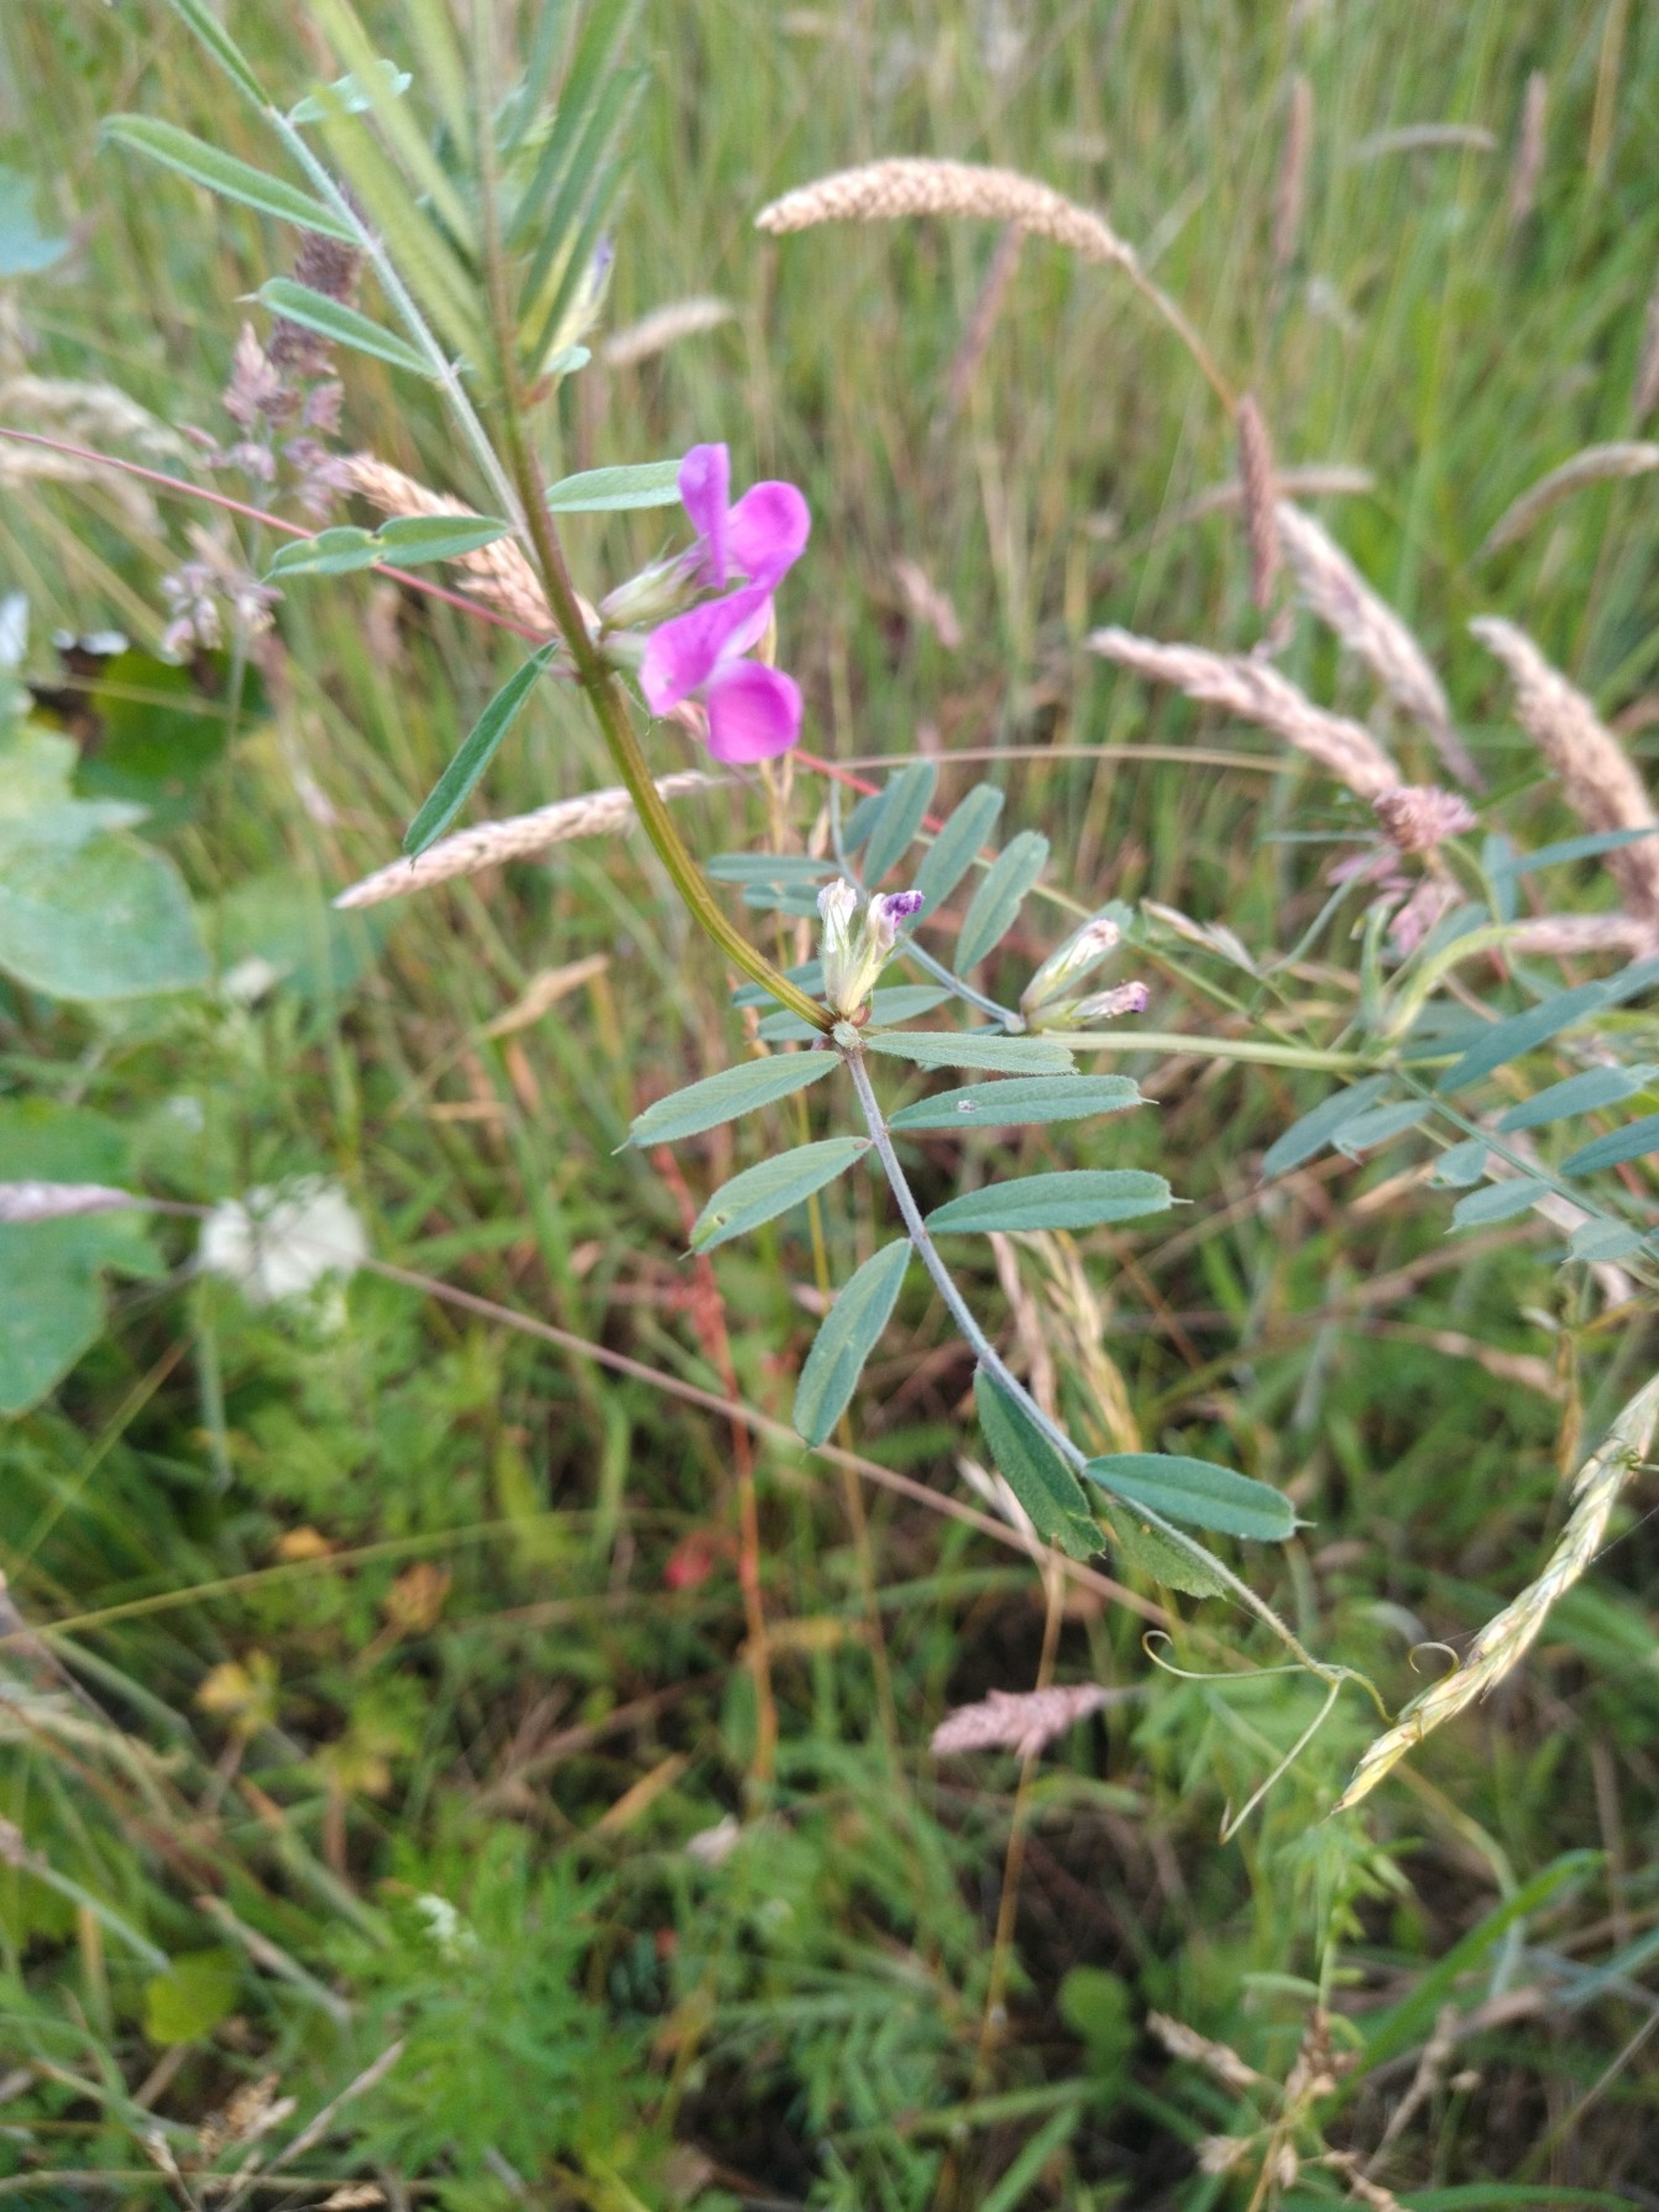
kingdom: Plantae
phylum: Tracheophyta
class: Magnoliopsida
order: Fabales
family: Fabaceae
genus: Vicia
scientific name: Vicia sativa
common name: Smalbladet vikke
